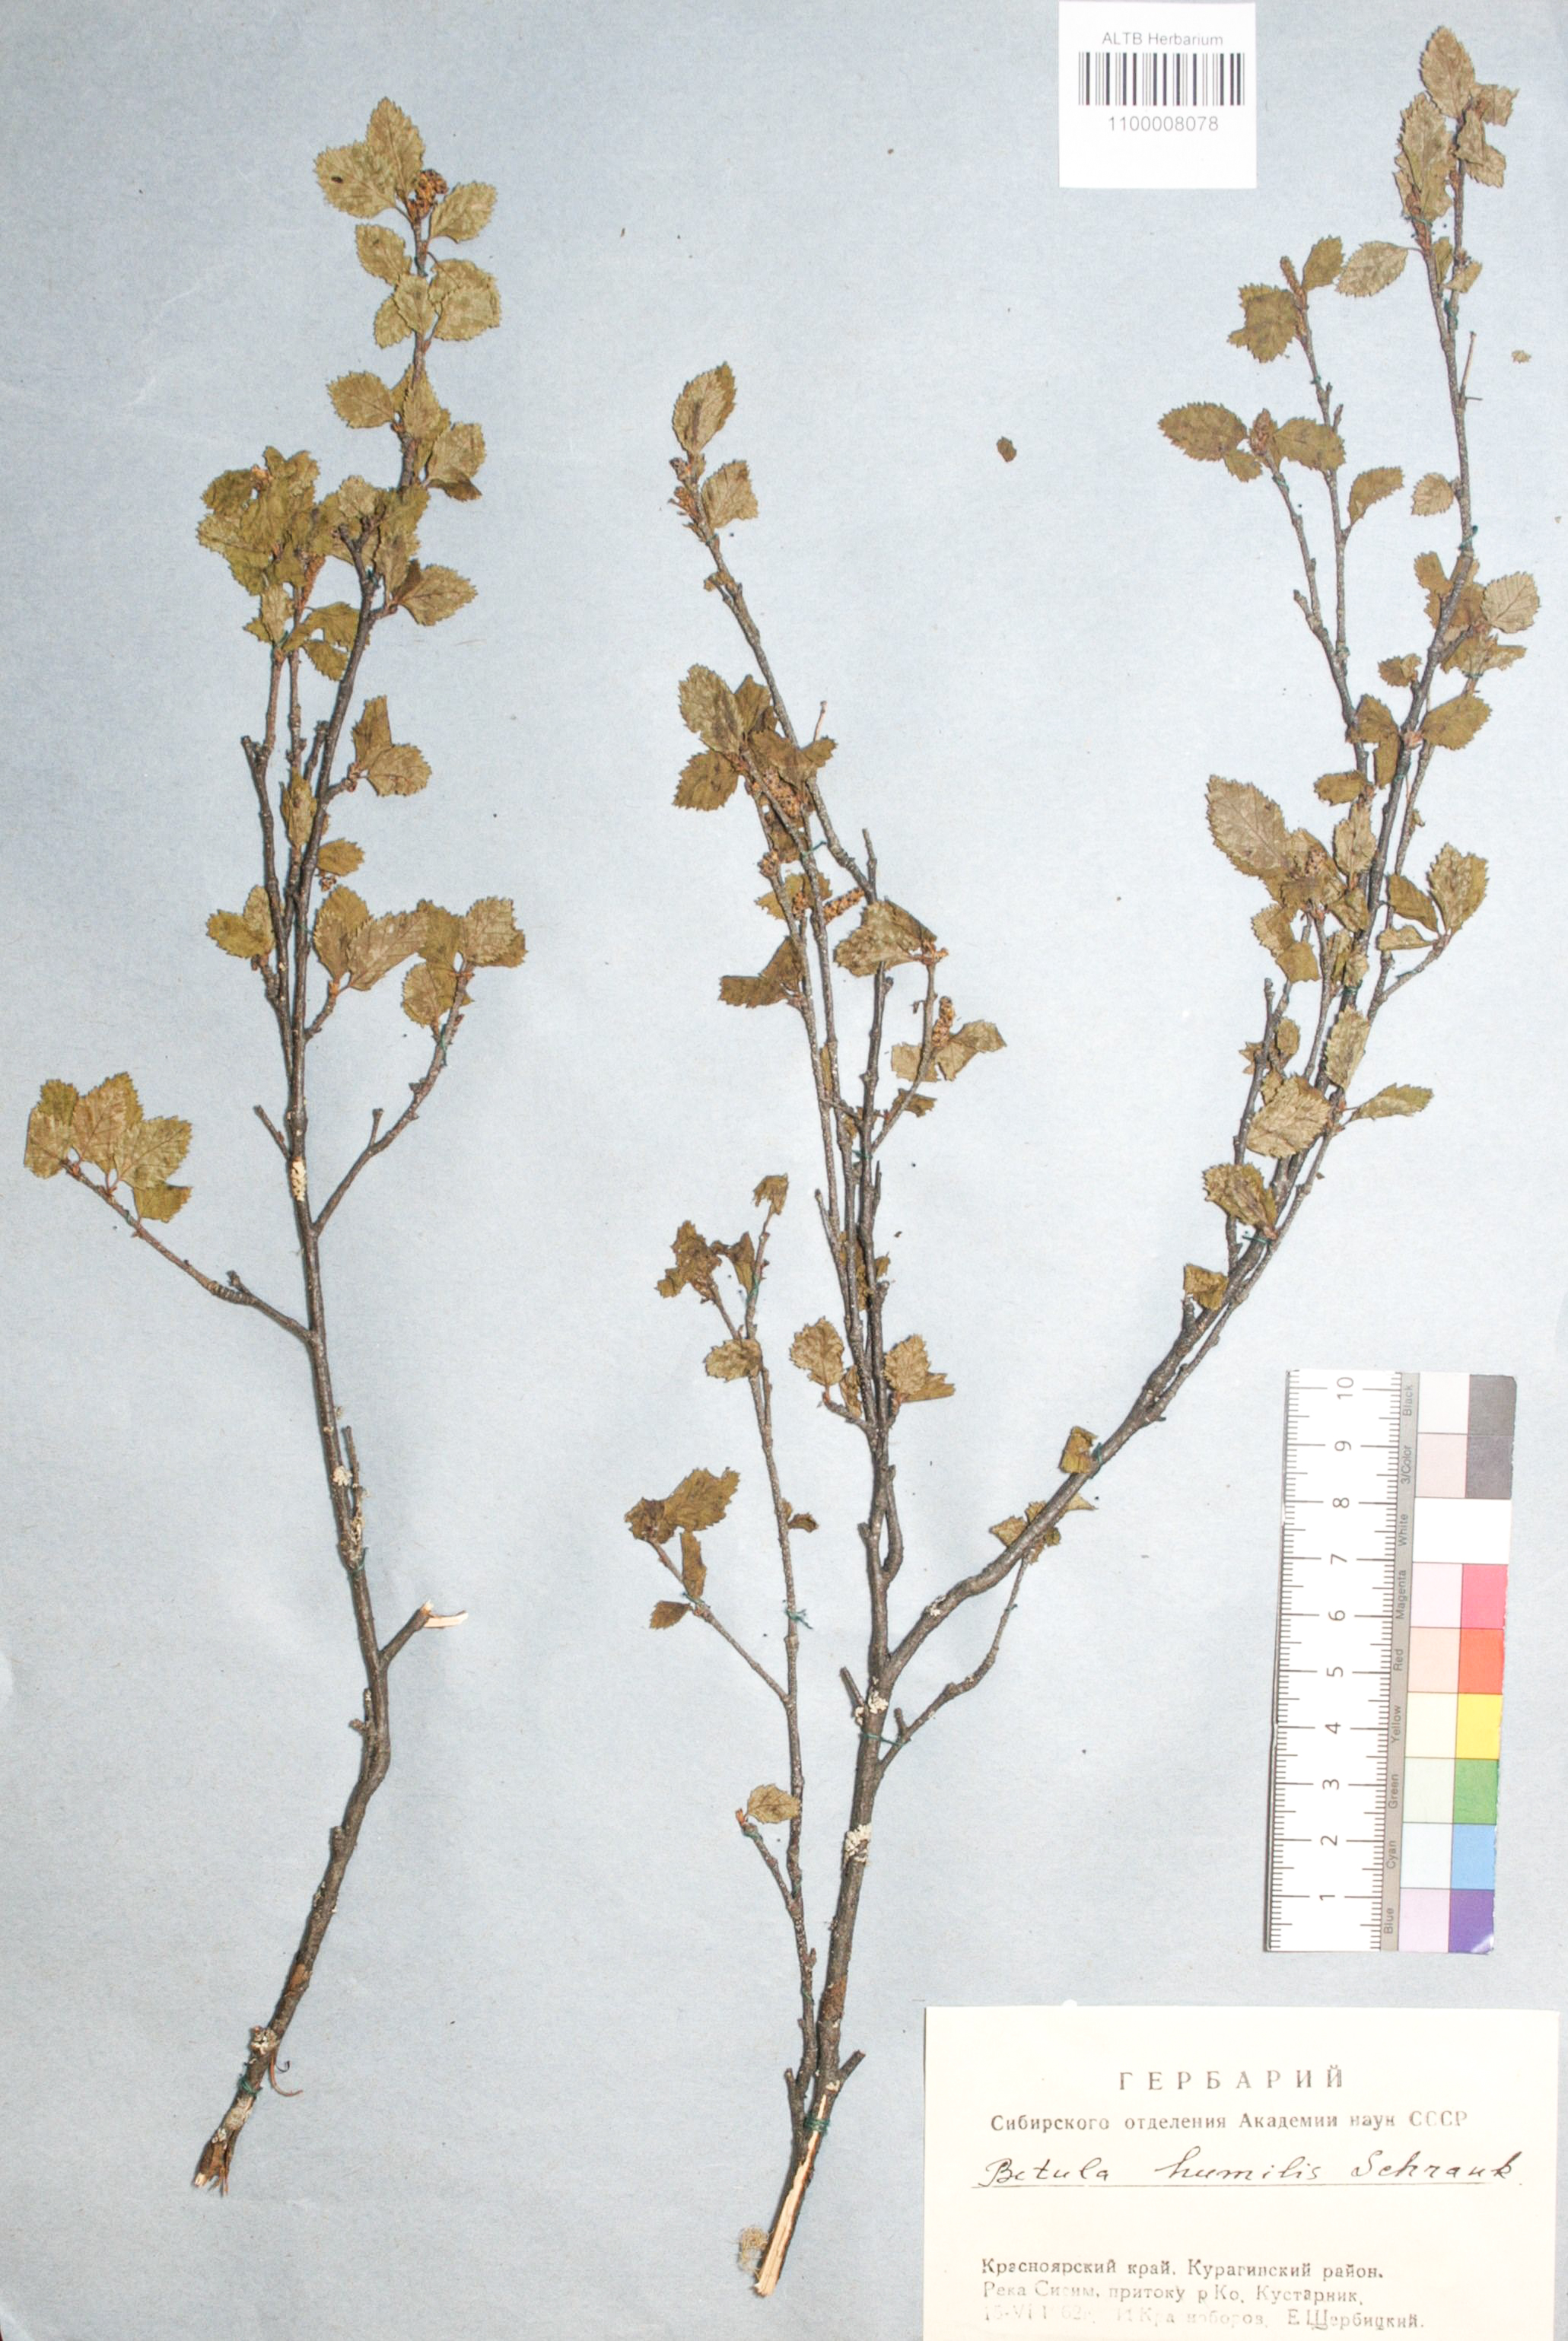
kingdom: Plantae
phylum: Tracheophyta
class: Magnoliopsida
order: Fagales
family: Betulaceae
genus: Betula
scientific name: Betula humilis
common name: Shrubby birch
